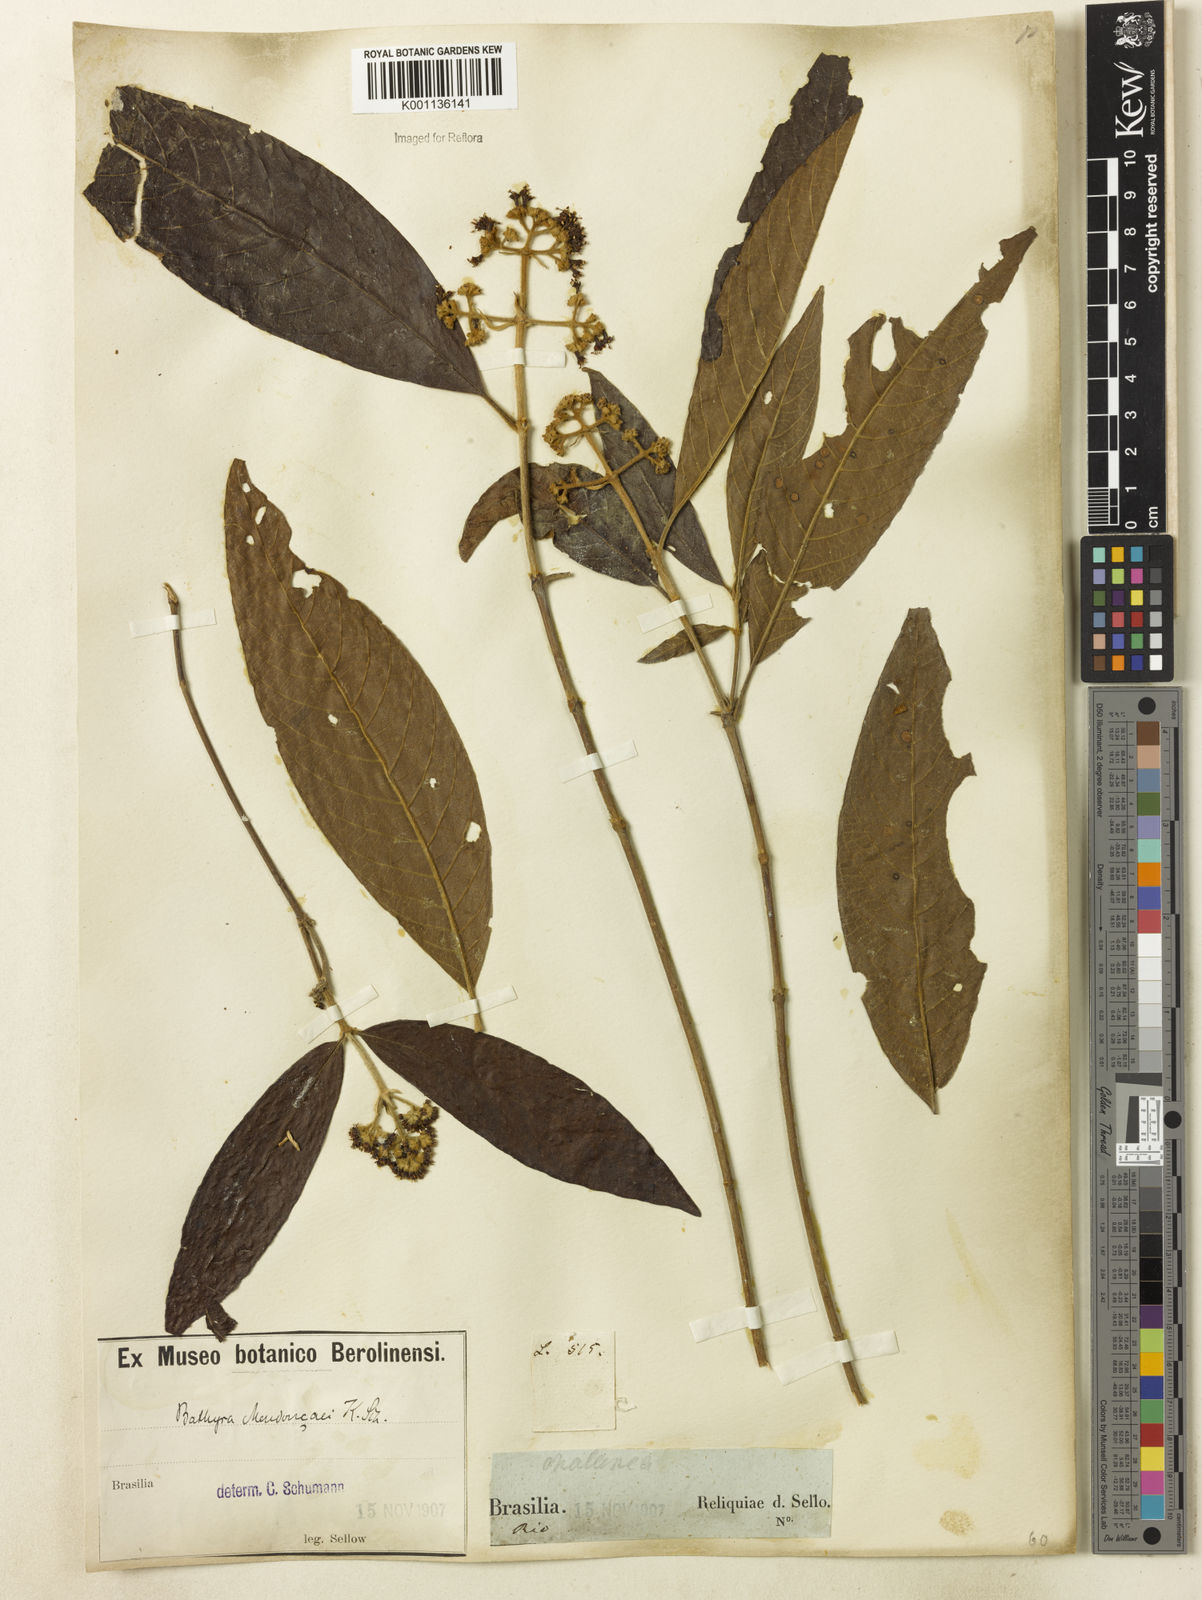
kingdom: Plantae
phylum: Tracheophyta
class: Magnoliopsida
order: Gentianales
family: Rubiaceae
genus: Bathysa
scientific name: Bathysa
